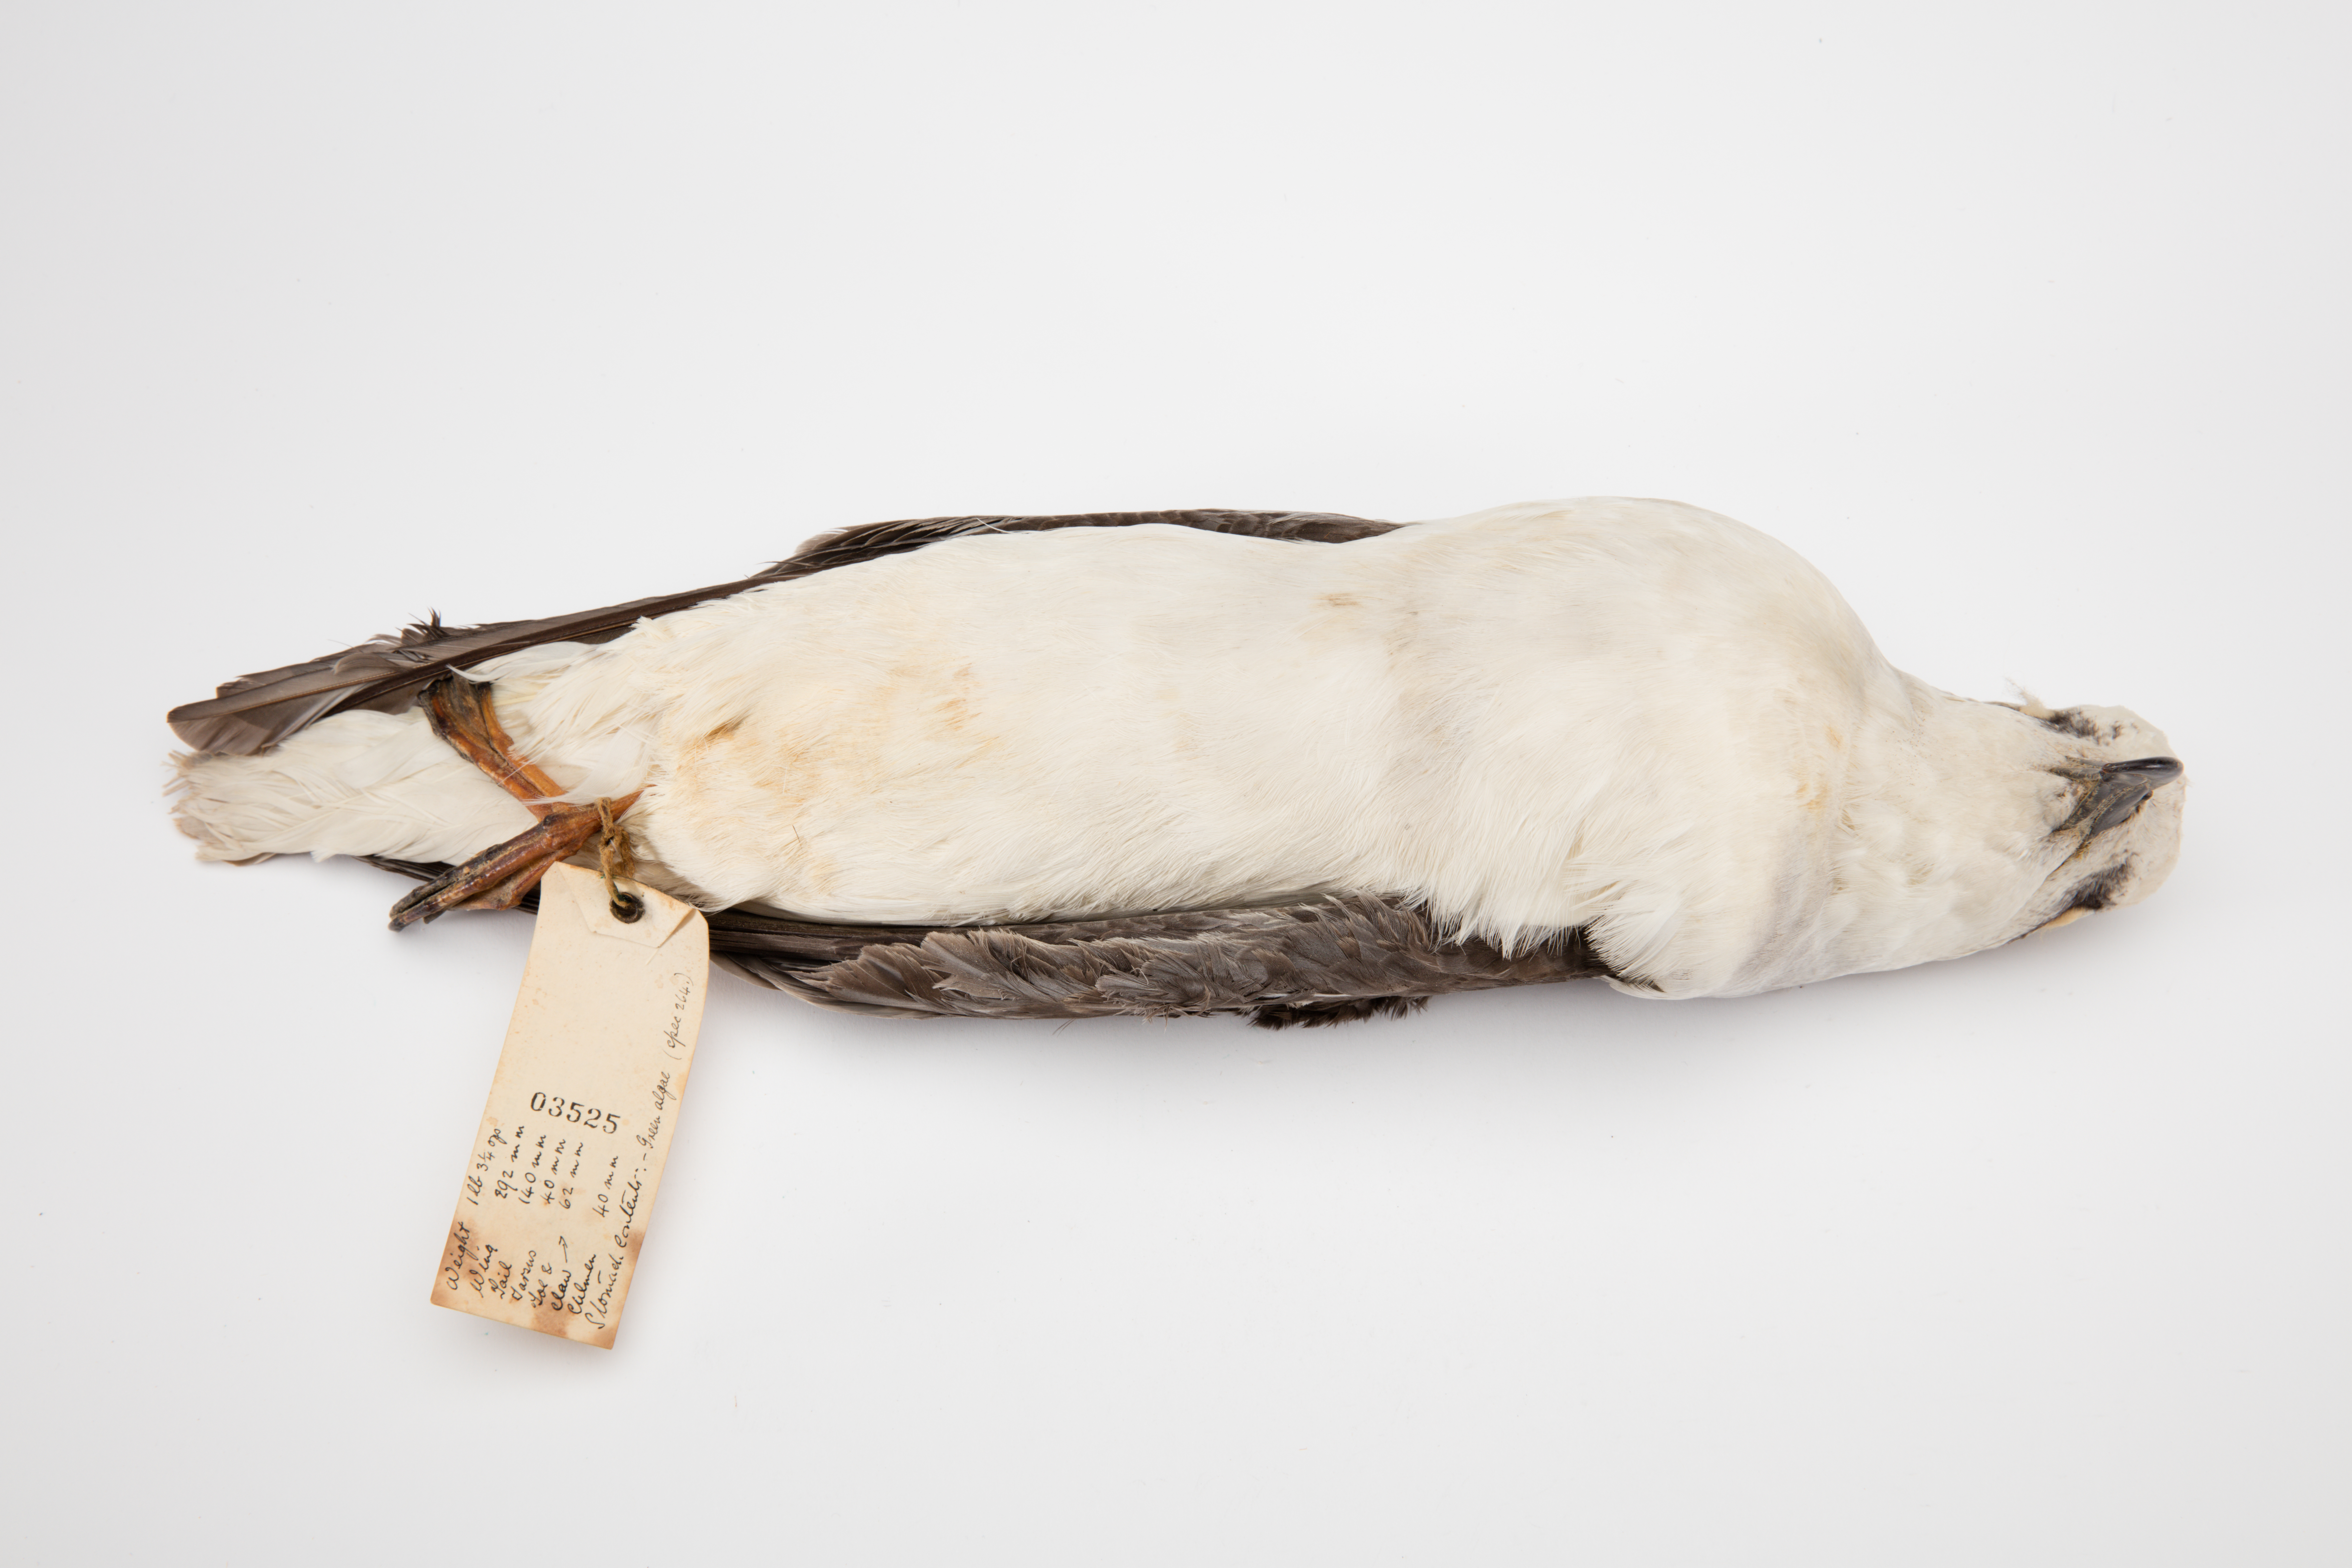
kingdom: Animalia
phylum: Chordata
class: Aves
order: Procellariiformes
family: Procellariidae
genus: Pterodroma
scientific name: Pterodroma lessonii
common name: White-headed petrel
